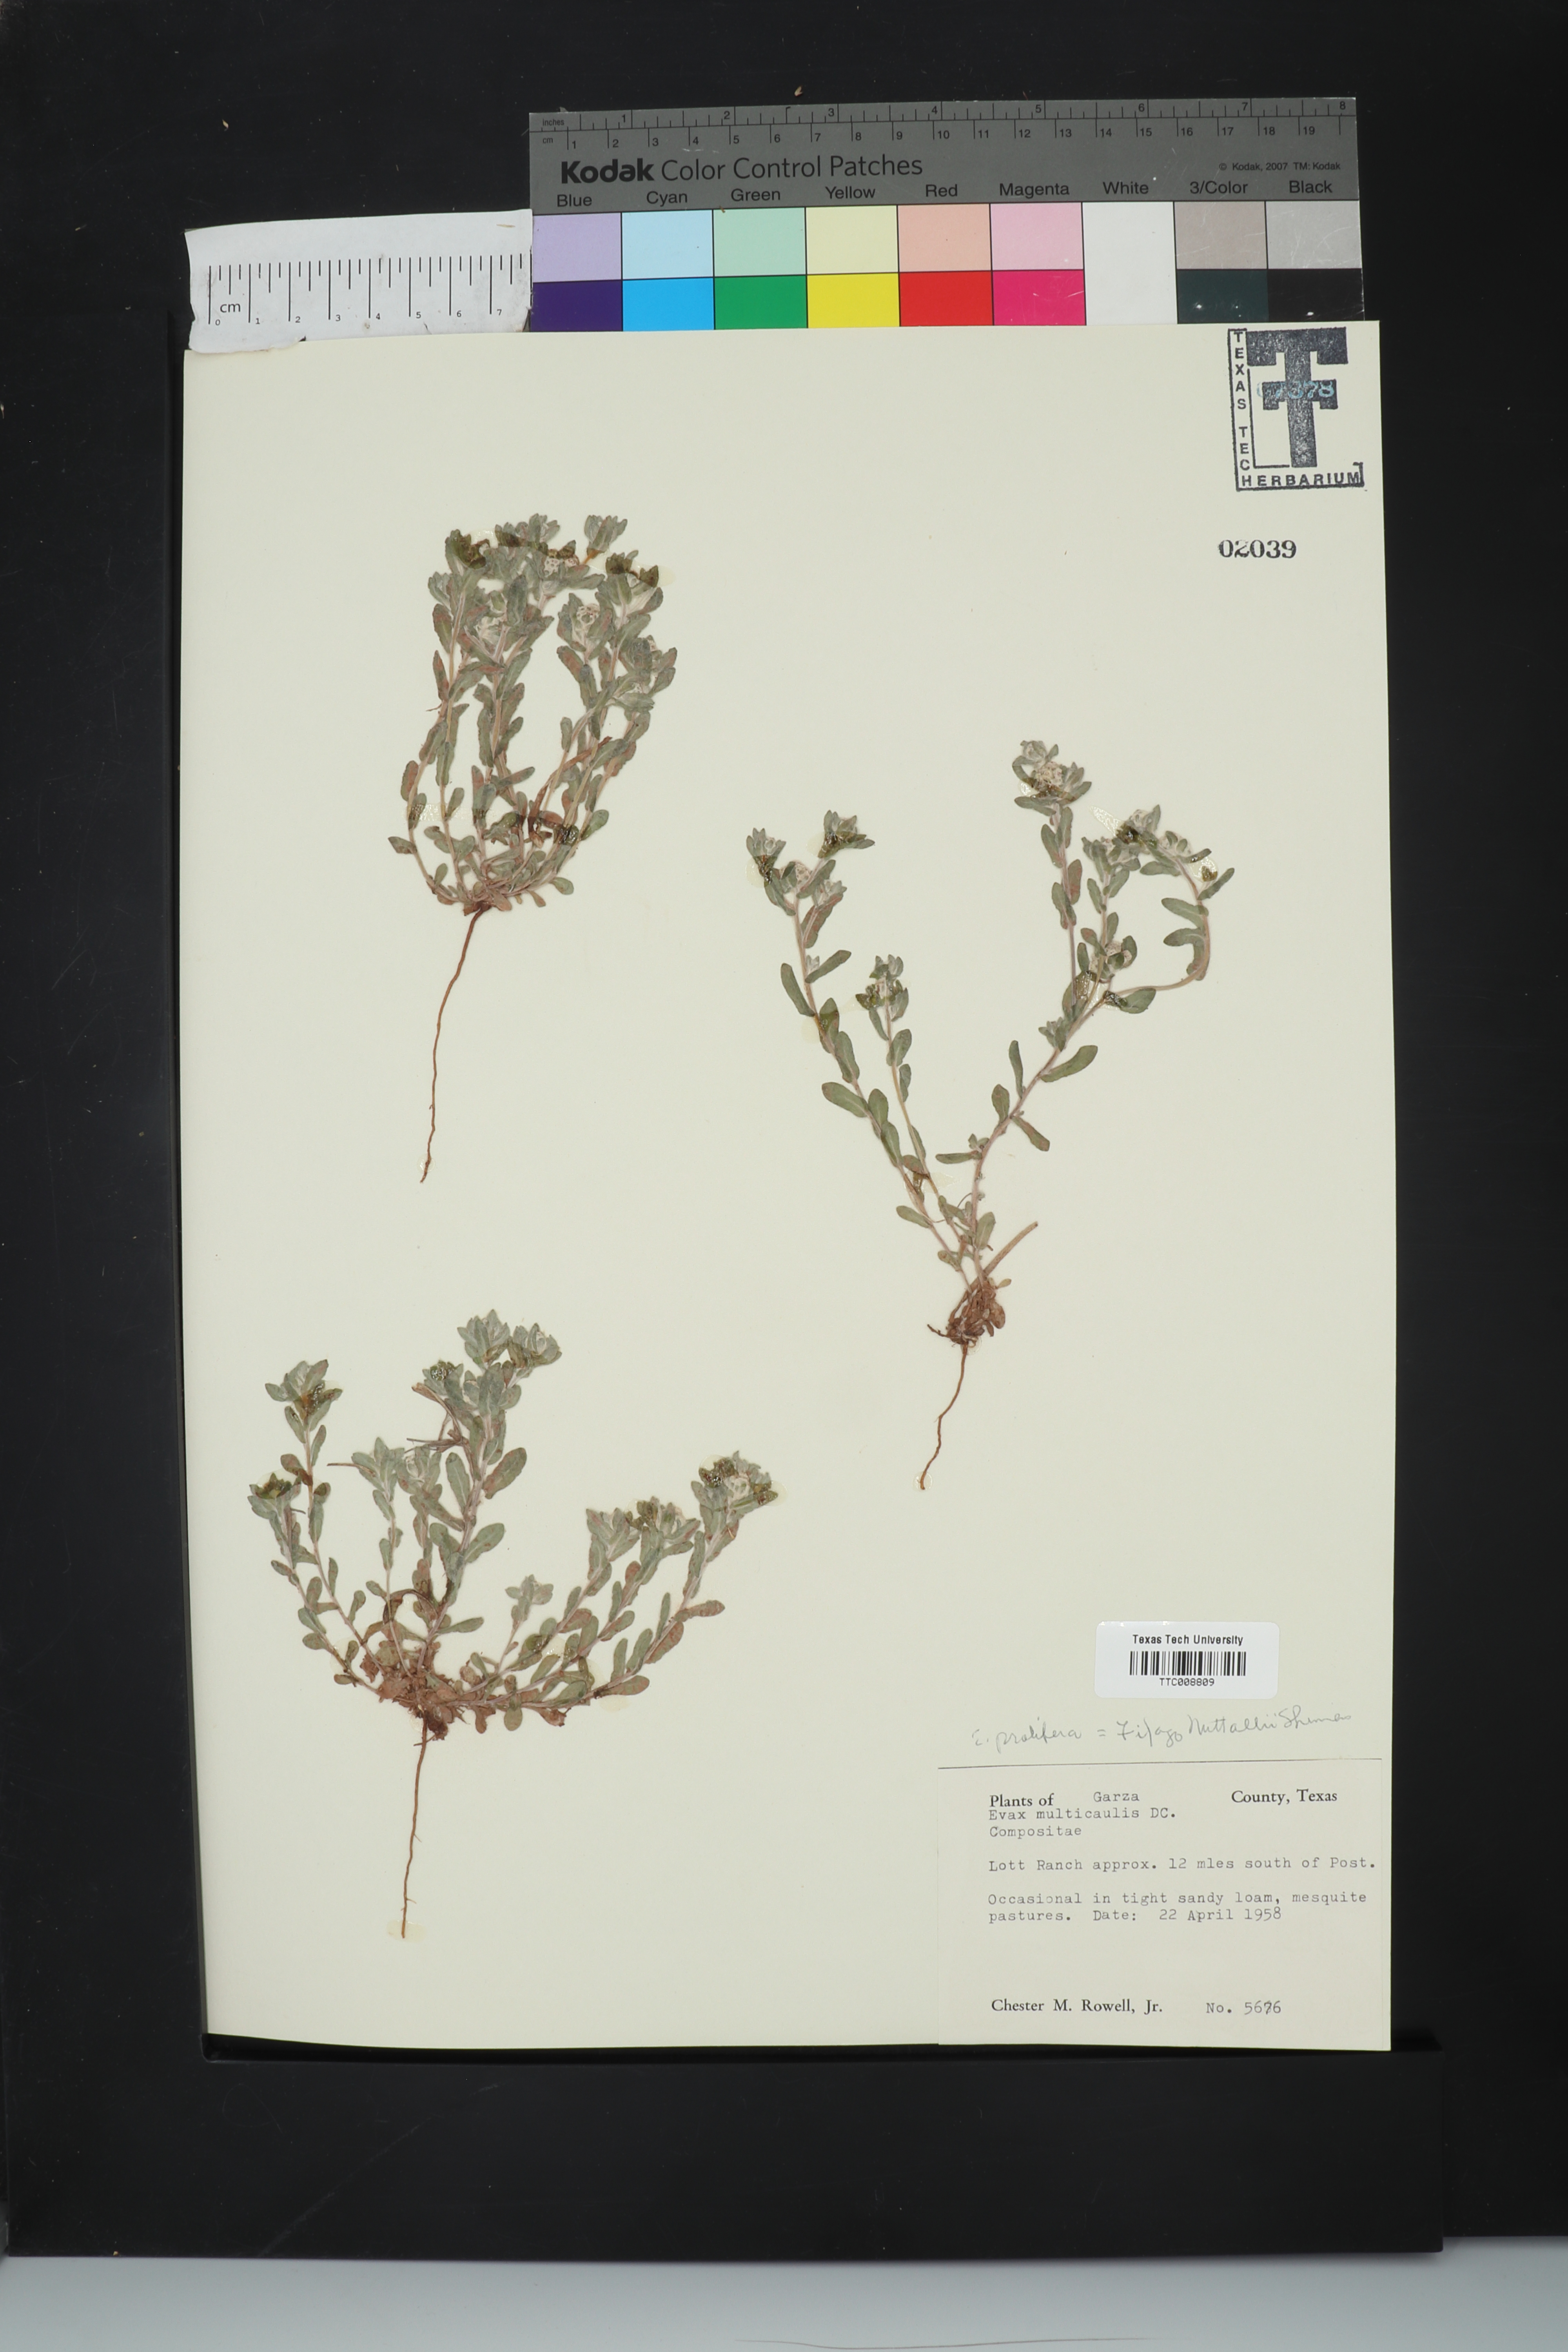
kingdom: Plantae
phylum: Tracheophyta
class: Magnoliopsida
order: Asterales
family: Asteraceae
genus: Diaperia
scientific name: Diaperia prolifera
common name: Big-head rabbit-tobacco
